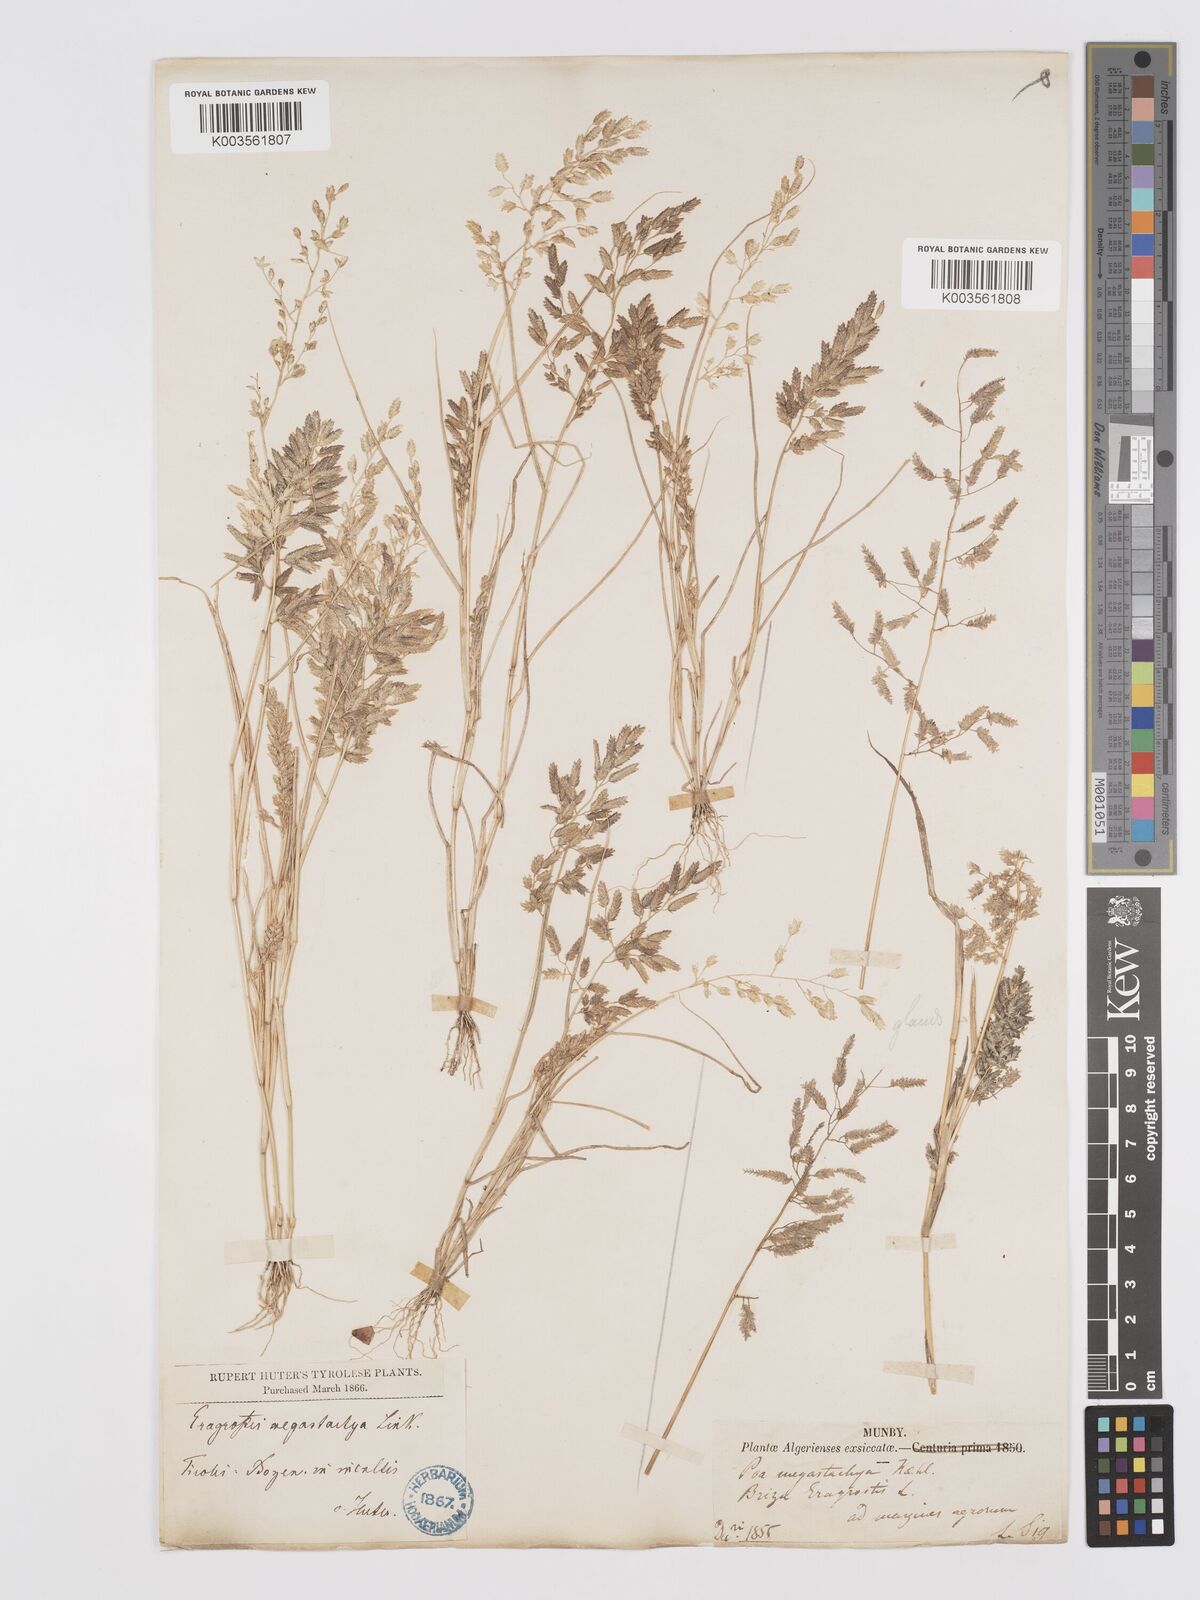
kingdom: Plantae
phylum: Tracheophyta
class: Liliopsida
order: Poales
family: Poaceae
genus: Eragrostis
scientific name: Eragrostis cilianensis
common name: Stinkgrass
